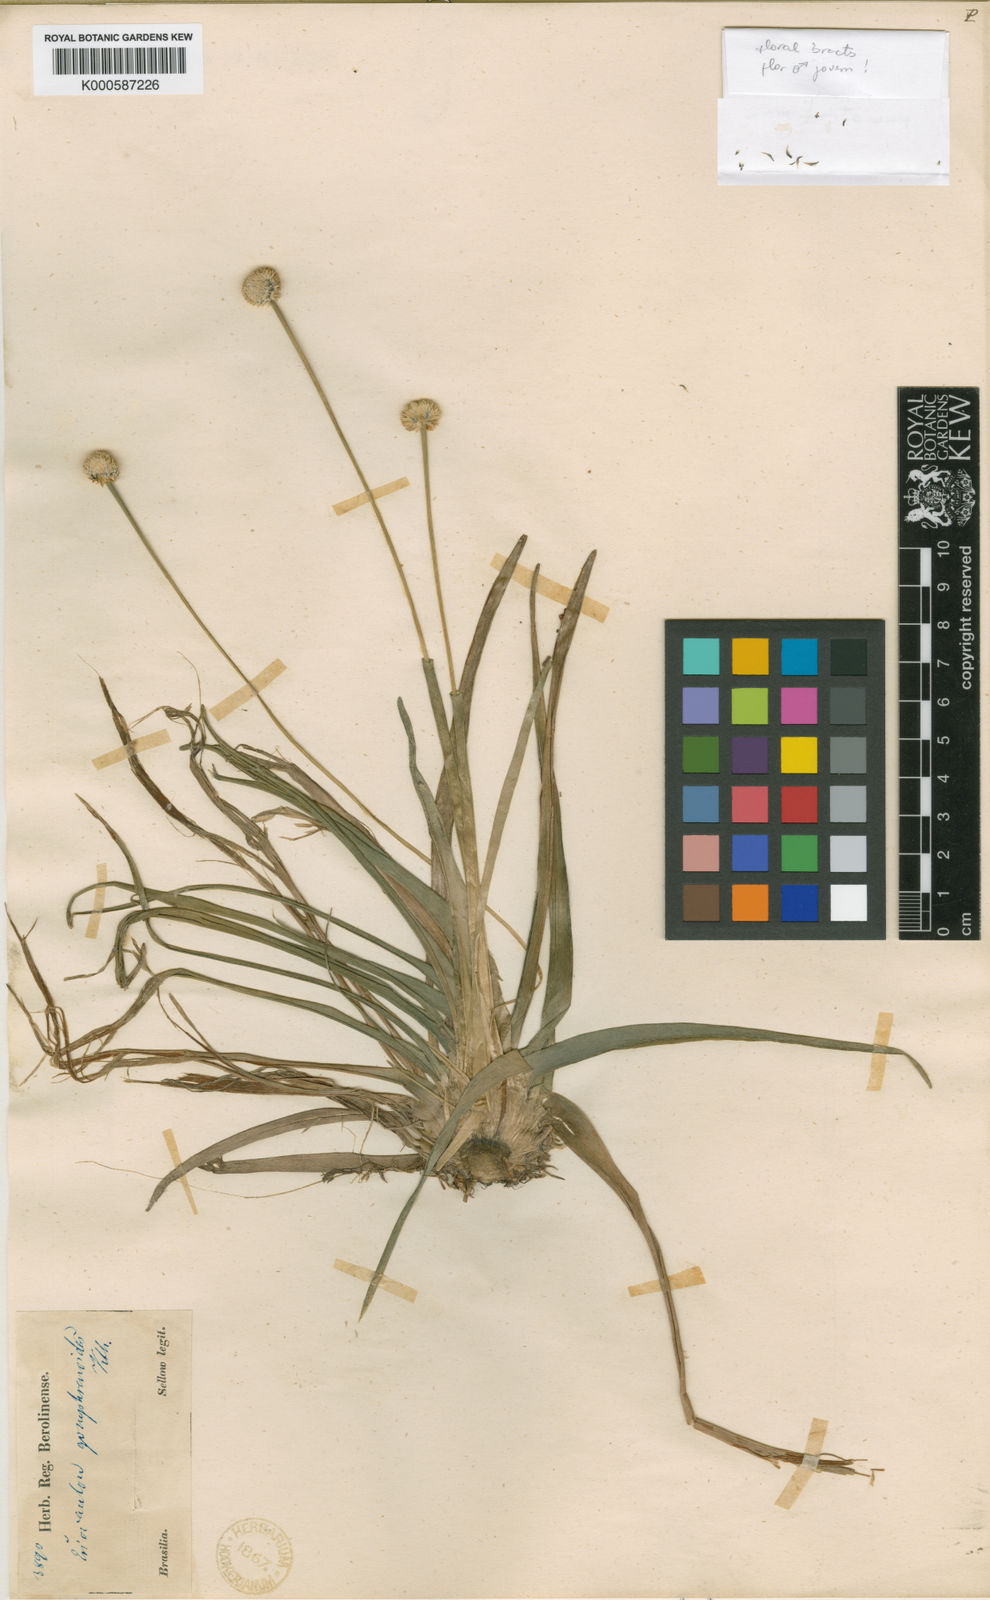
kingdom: Plantae
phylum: Tracheophyta
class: Liliopsida
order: Poales
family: Eriocaulaceae
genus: Eriocaulon
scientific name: Eriocaulon gomphrenoides
